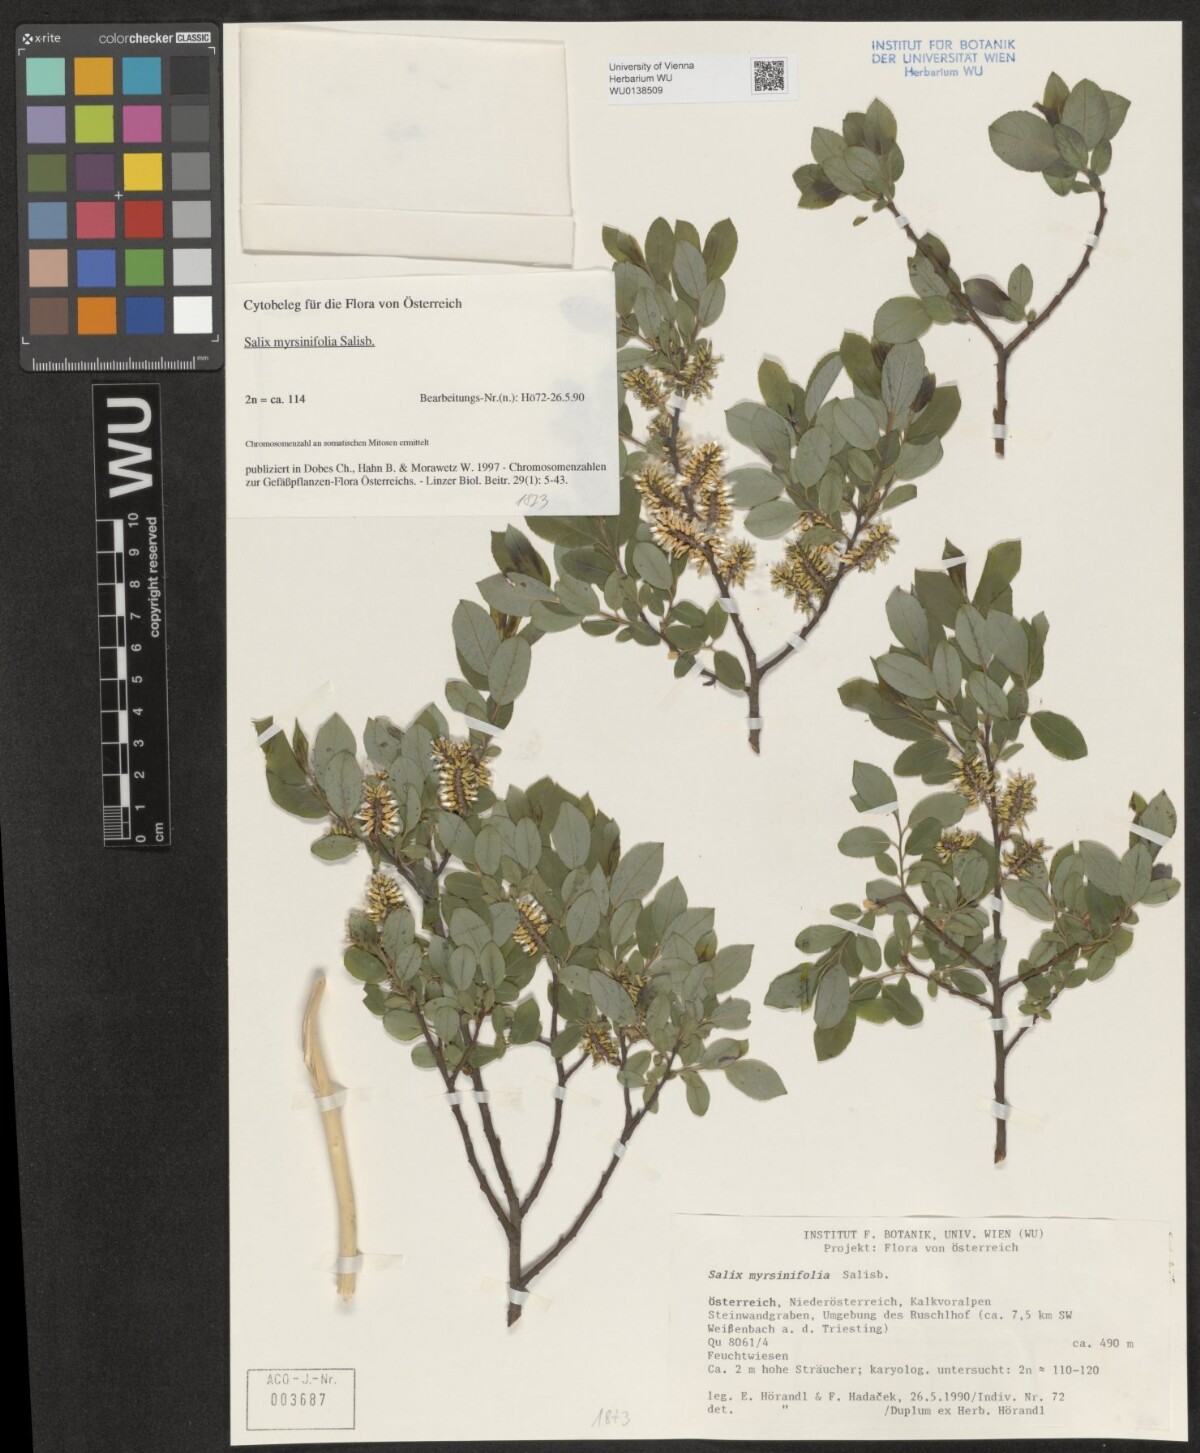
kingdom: Plantae
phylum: Tracheophyta
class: Magnoliopsida
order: Malpighiales
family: Salicaceae
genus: Salix
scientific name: Salix myrsinifolia
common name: Dark-leaved willow
